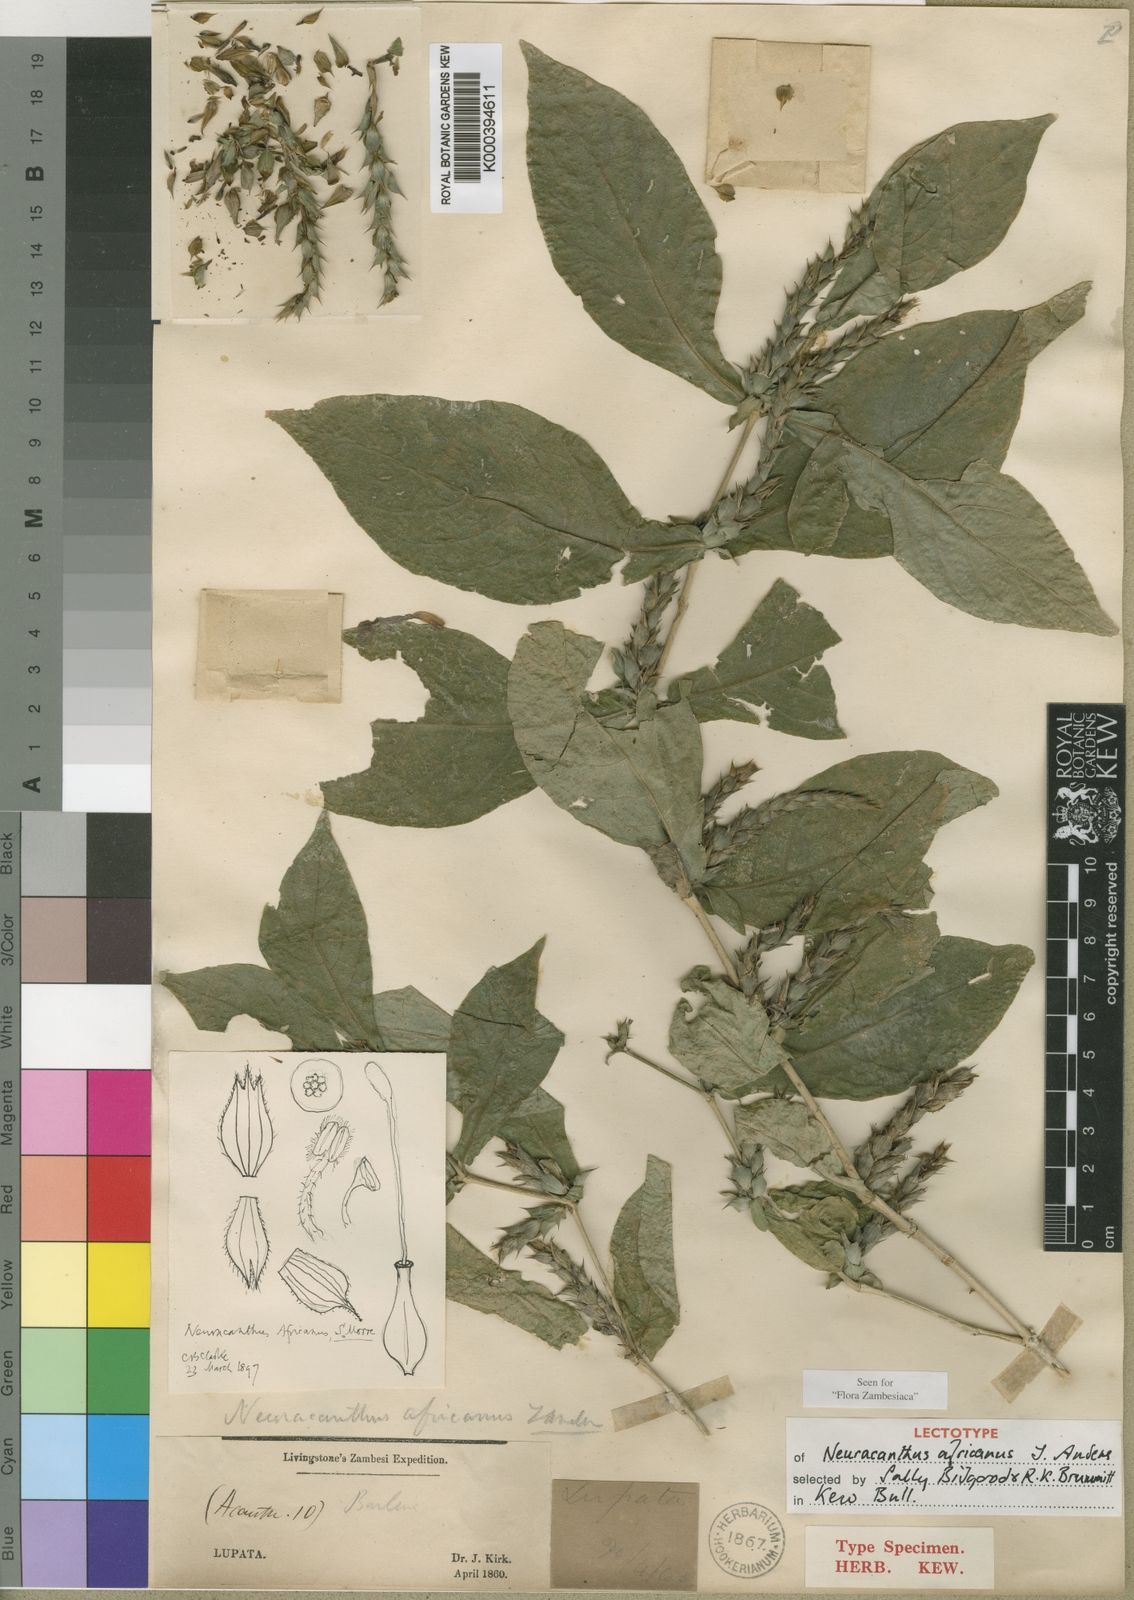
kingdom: Plantae
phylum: Tracheophyta
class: Magnoliopsida
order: Lamiales
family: Acanthaceae
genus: Neuracanthus
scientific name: Neuracanthus africanus
